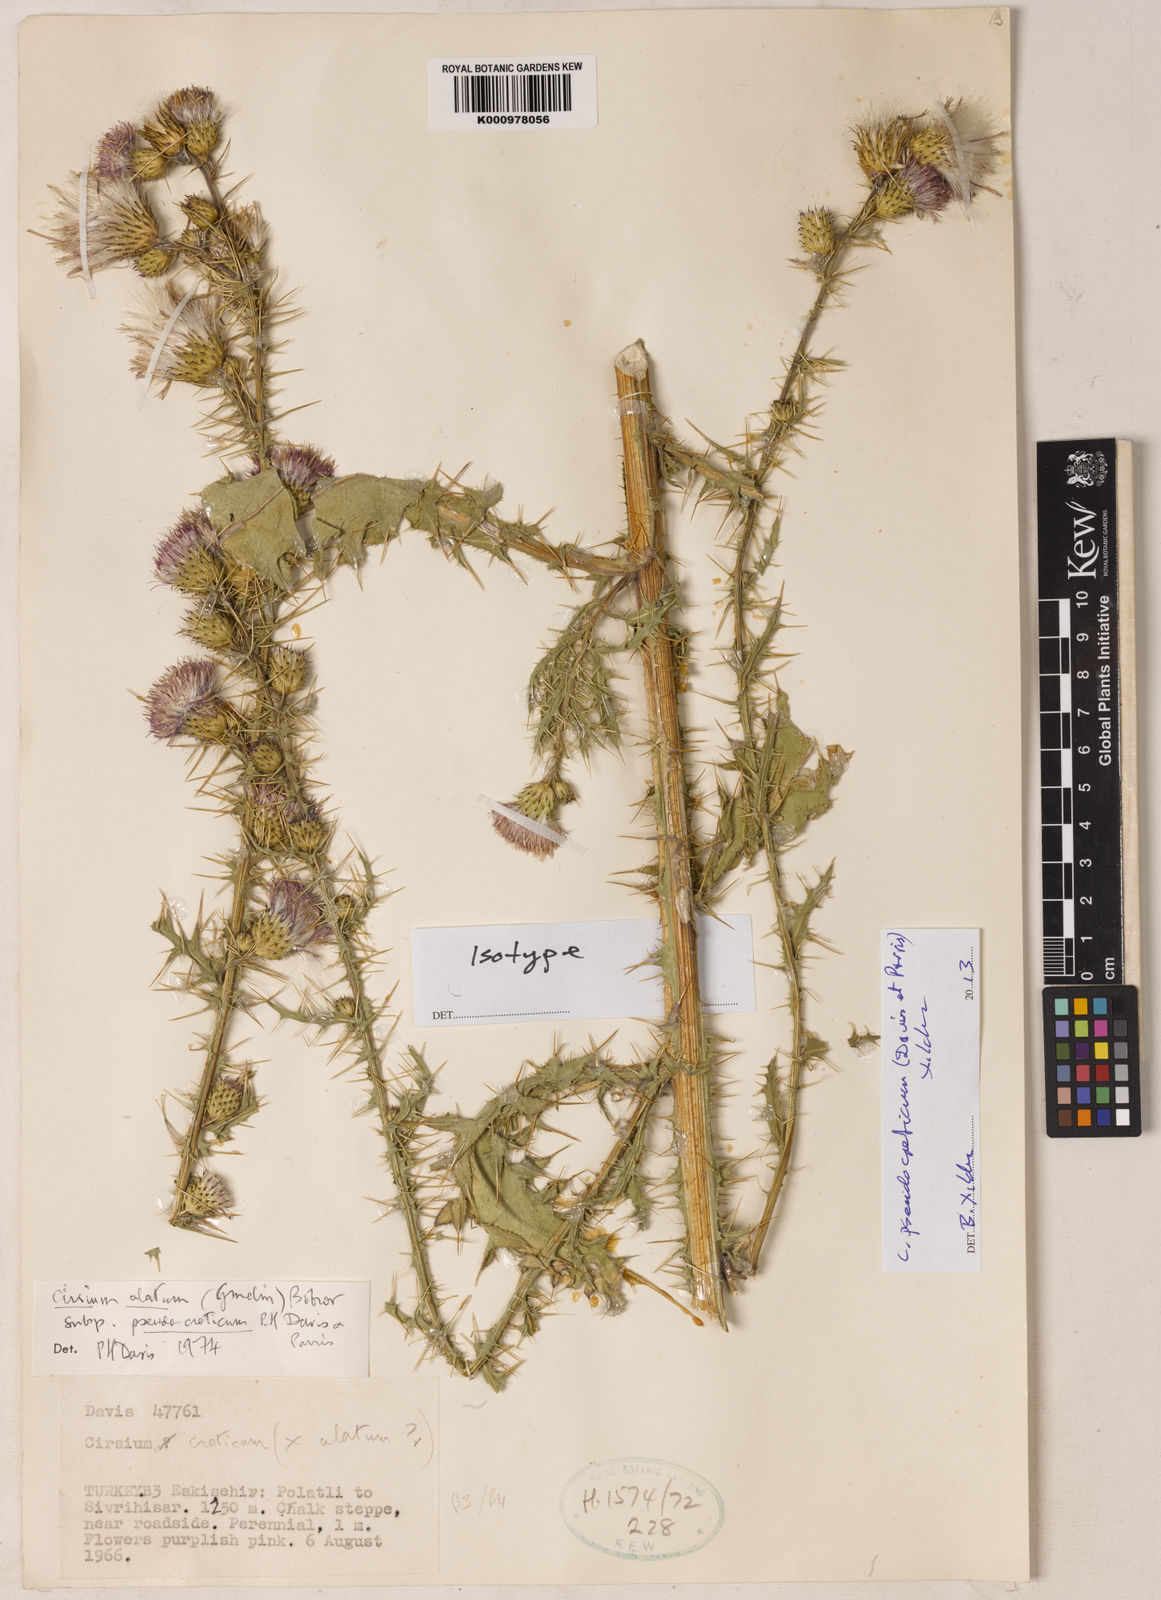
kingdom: Plantae
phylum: Tracheophyta
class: Magnoliopsida
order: Asterales
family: Asteraceae
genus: Cirsium
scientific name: Cirsium
